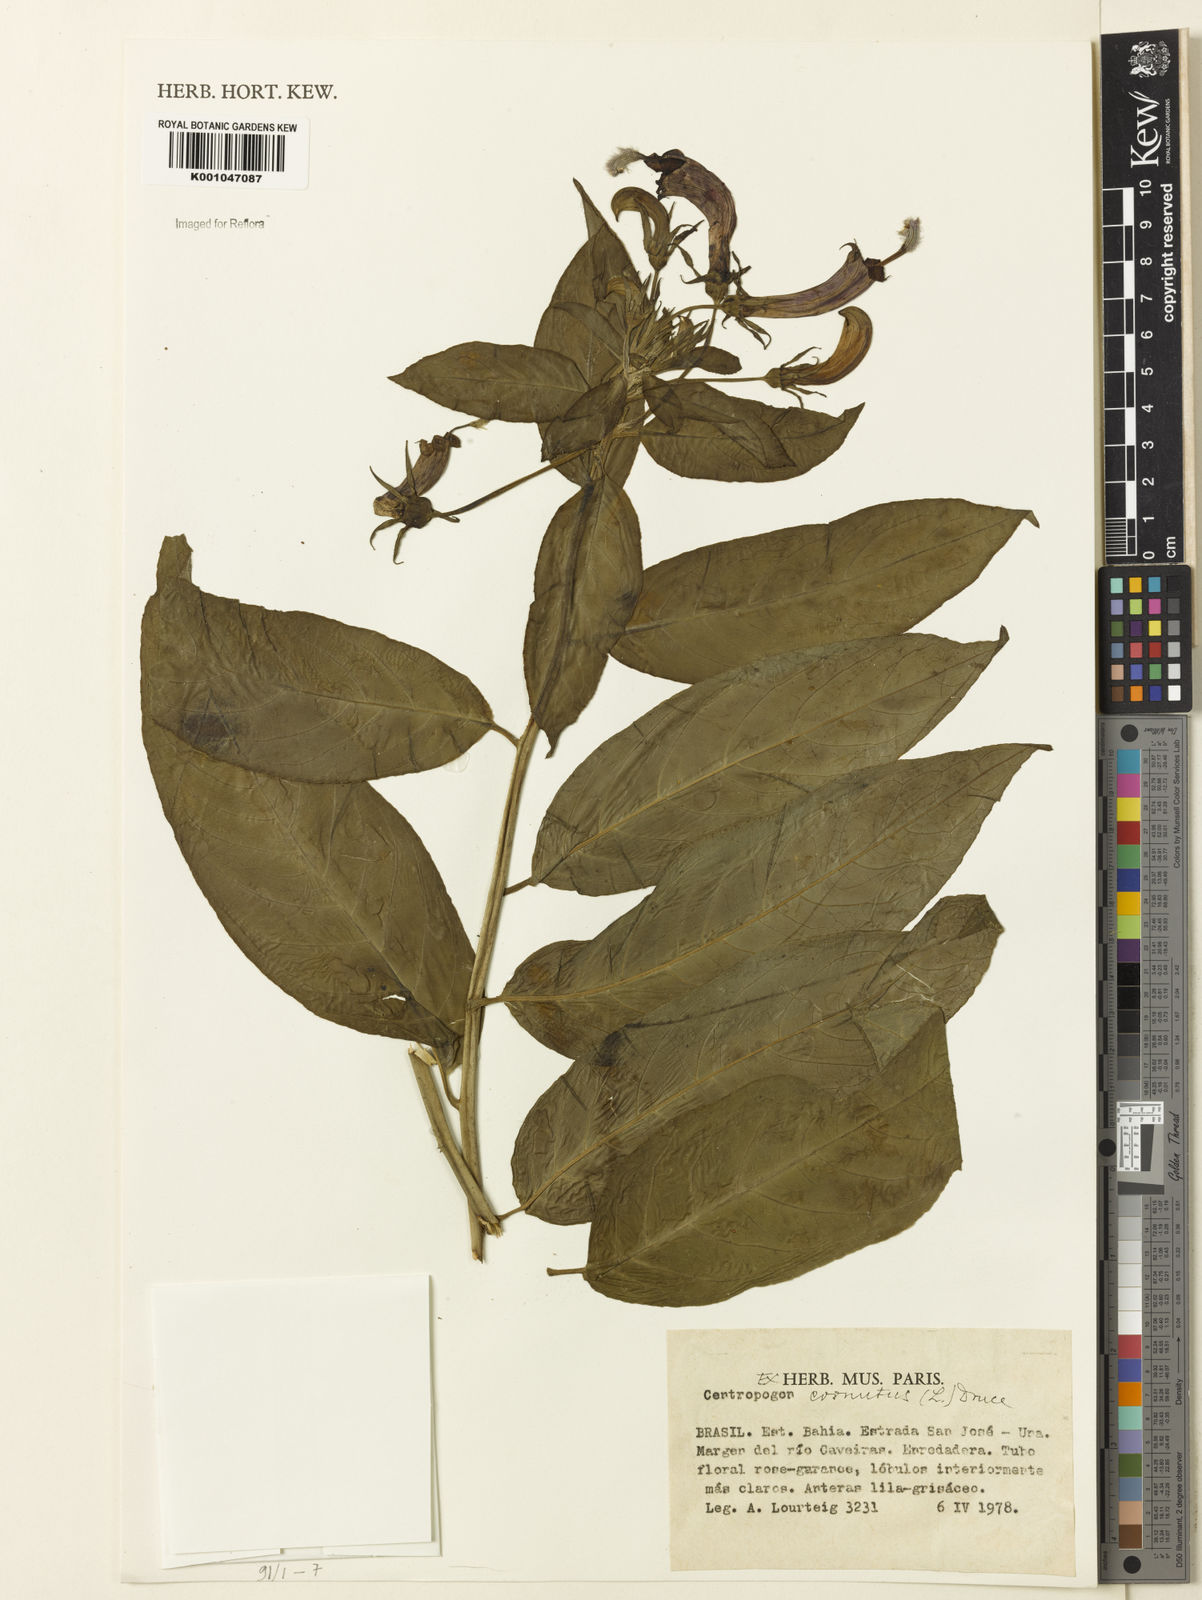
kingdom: Plantae
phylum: Tracheophyta
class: Magnoliopsida
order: Asterales
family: Campanulaceae
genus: Centropogon
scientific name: Centropogon cornutus
